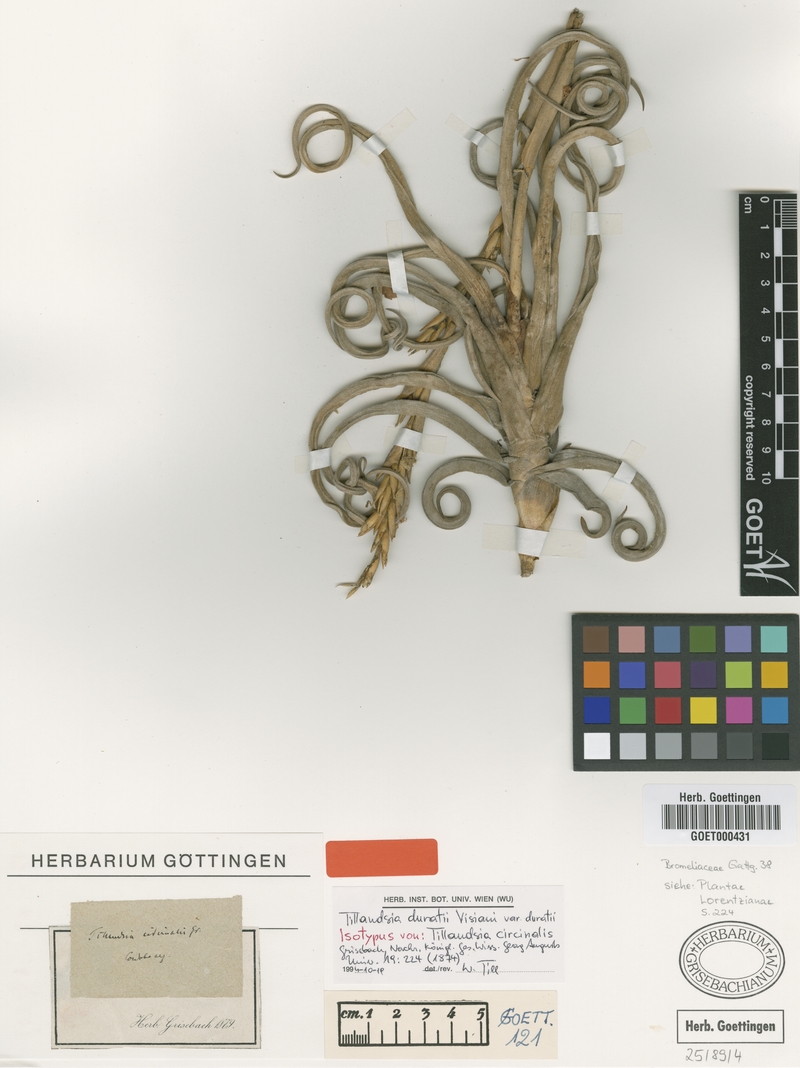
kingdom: Plantae
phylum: Tracheophyta
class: Liliopsida
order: Poales
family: Bromeliaceae
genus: Tillandsia
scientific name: Tillandsia duratii
